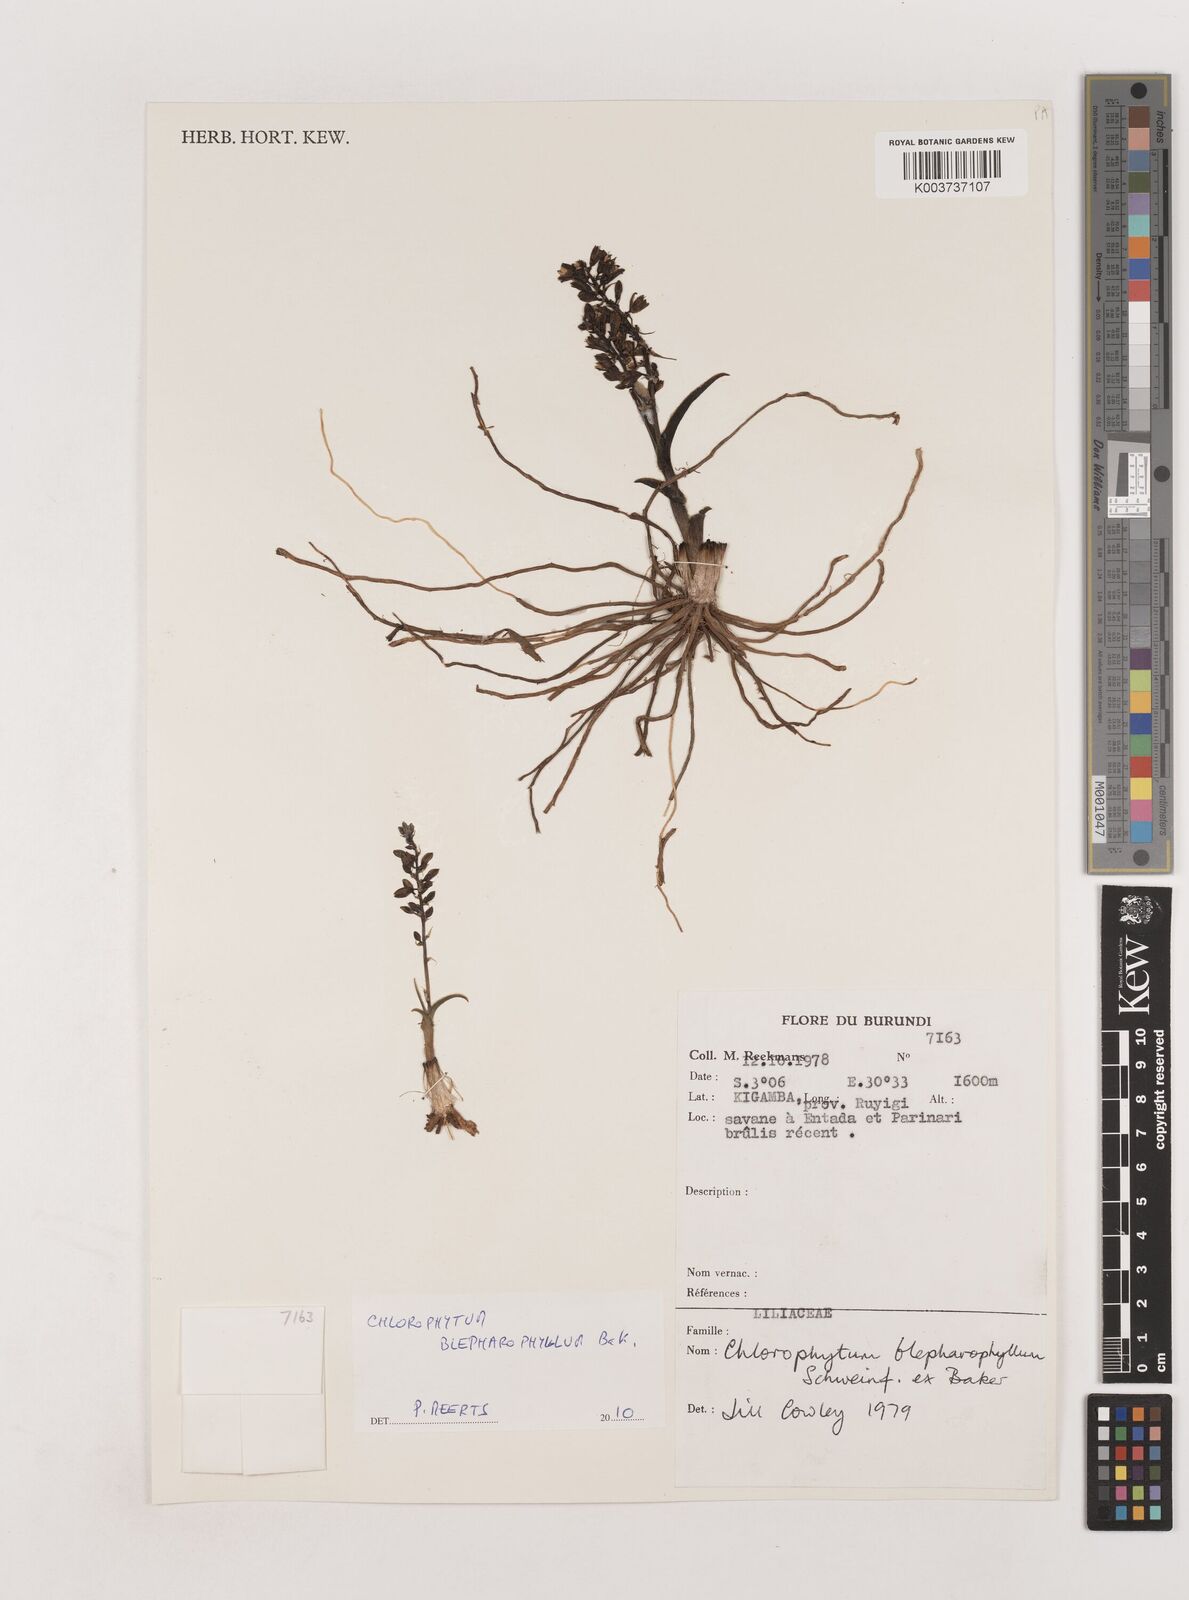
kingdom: Plantae
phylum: Tracheophyta
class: Liliopsida
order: Asparagales
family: Asparagaceae
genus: Chlorophytum
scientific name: Chlorophytum blepharophyllum
